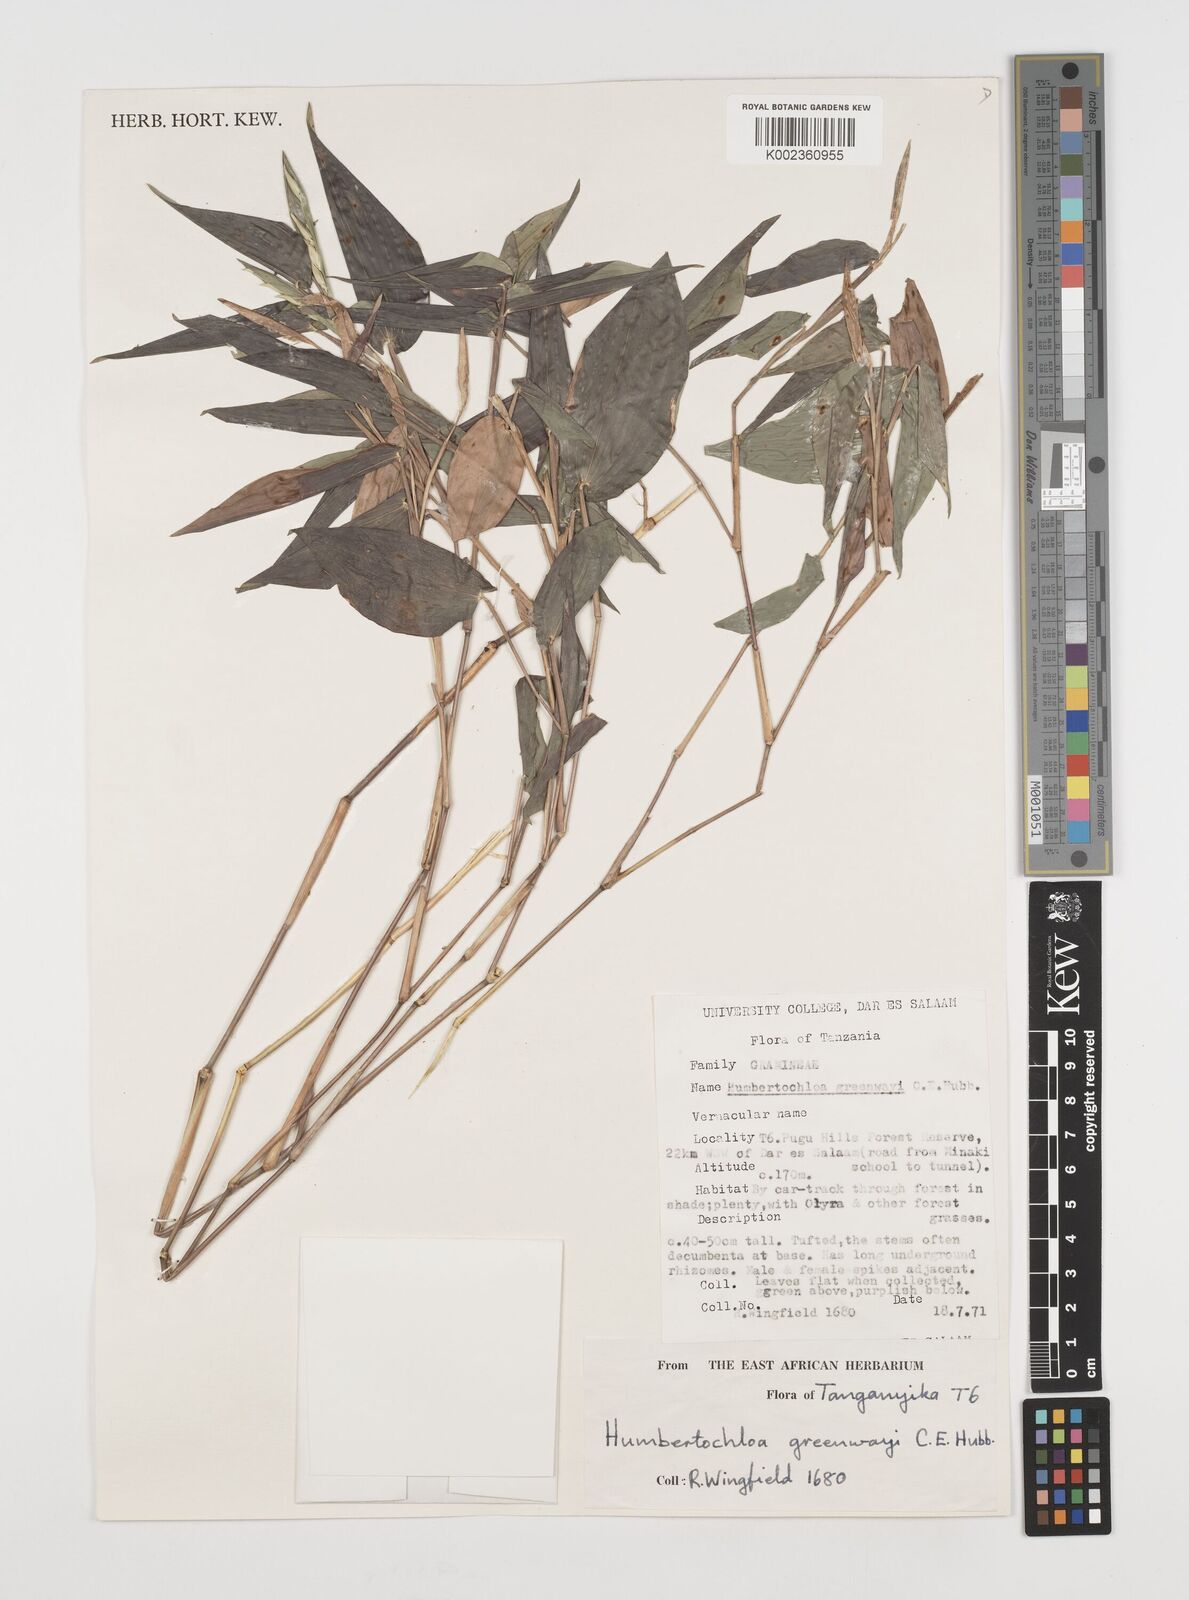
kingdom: Plantae
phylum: Tracheophyta
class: Liliopsida
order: Poales
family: Poaceae
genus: Humbertochloa
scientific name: Humbertochloa greenwayi
